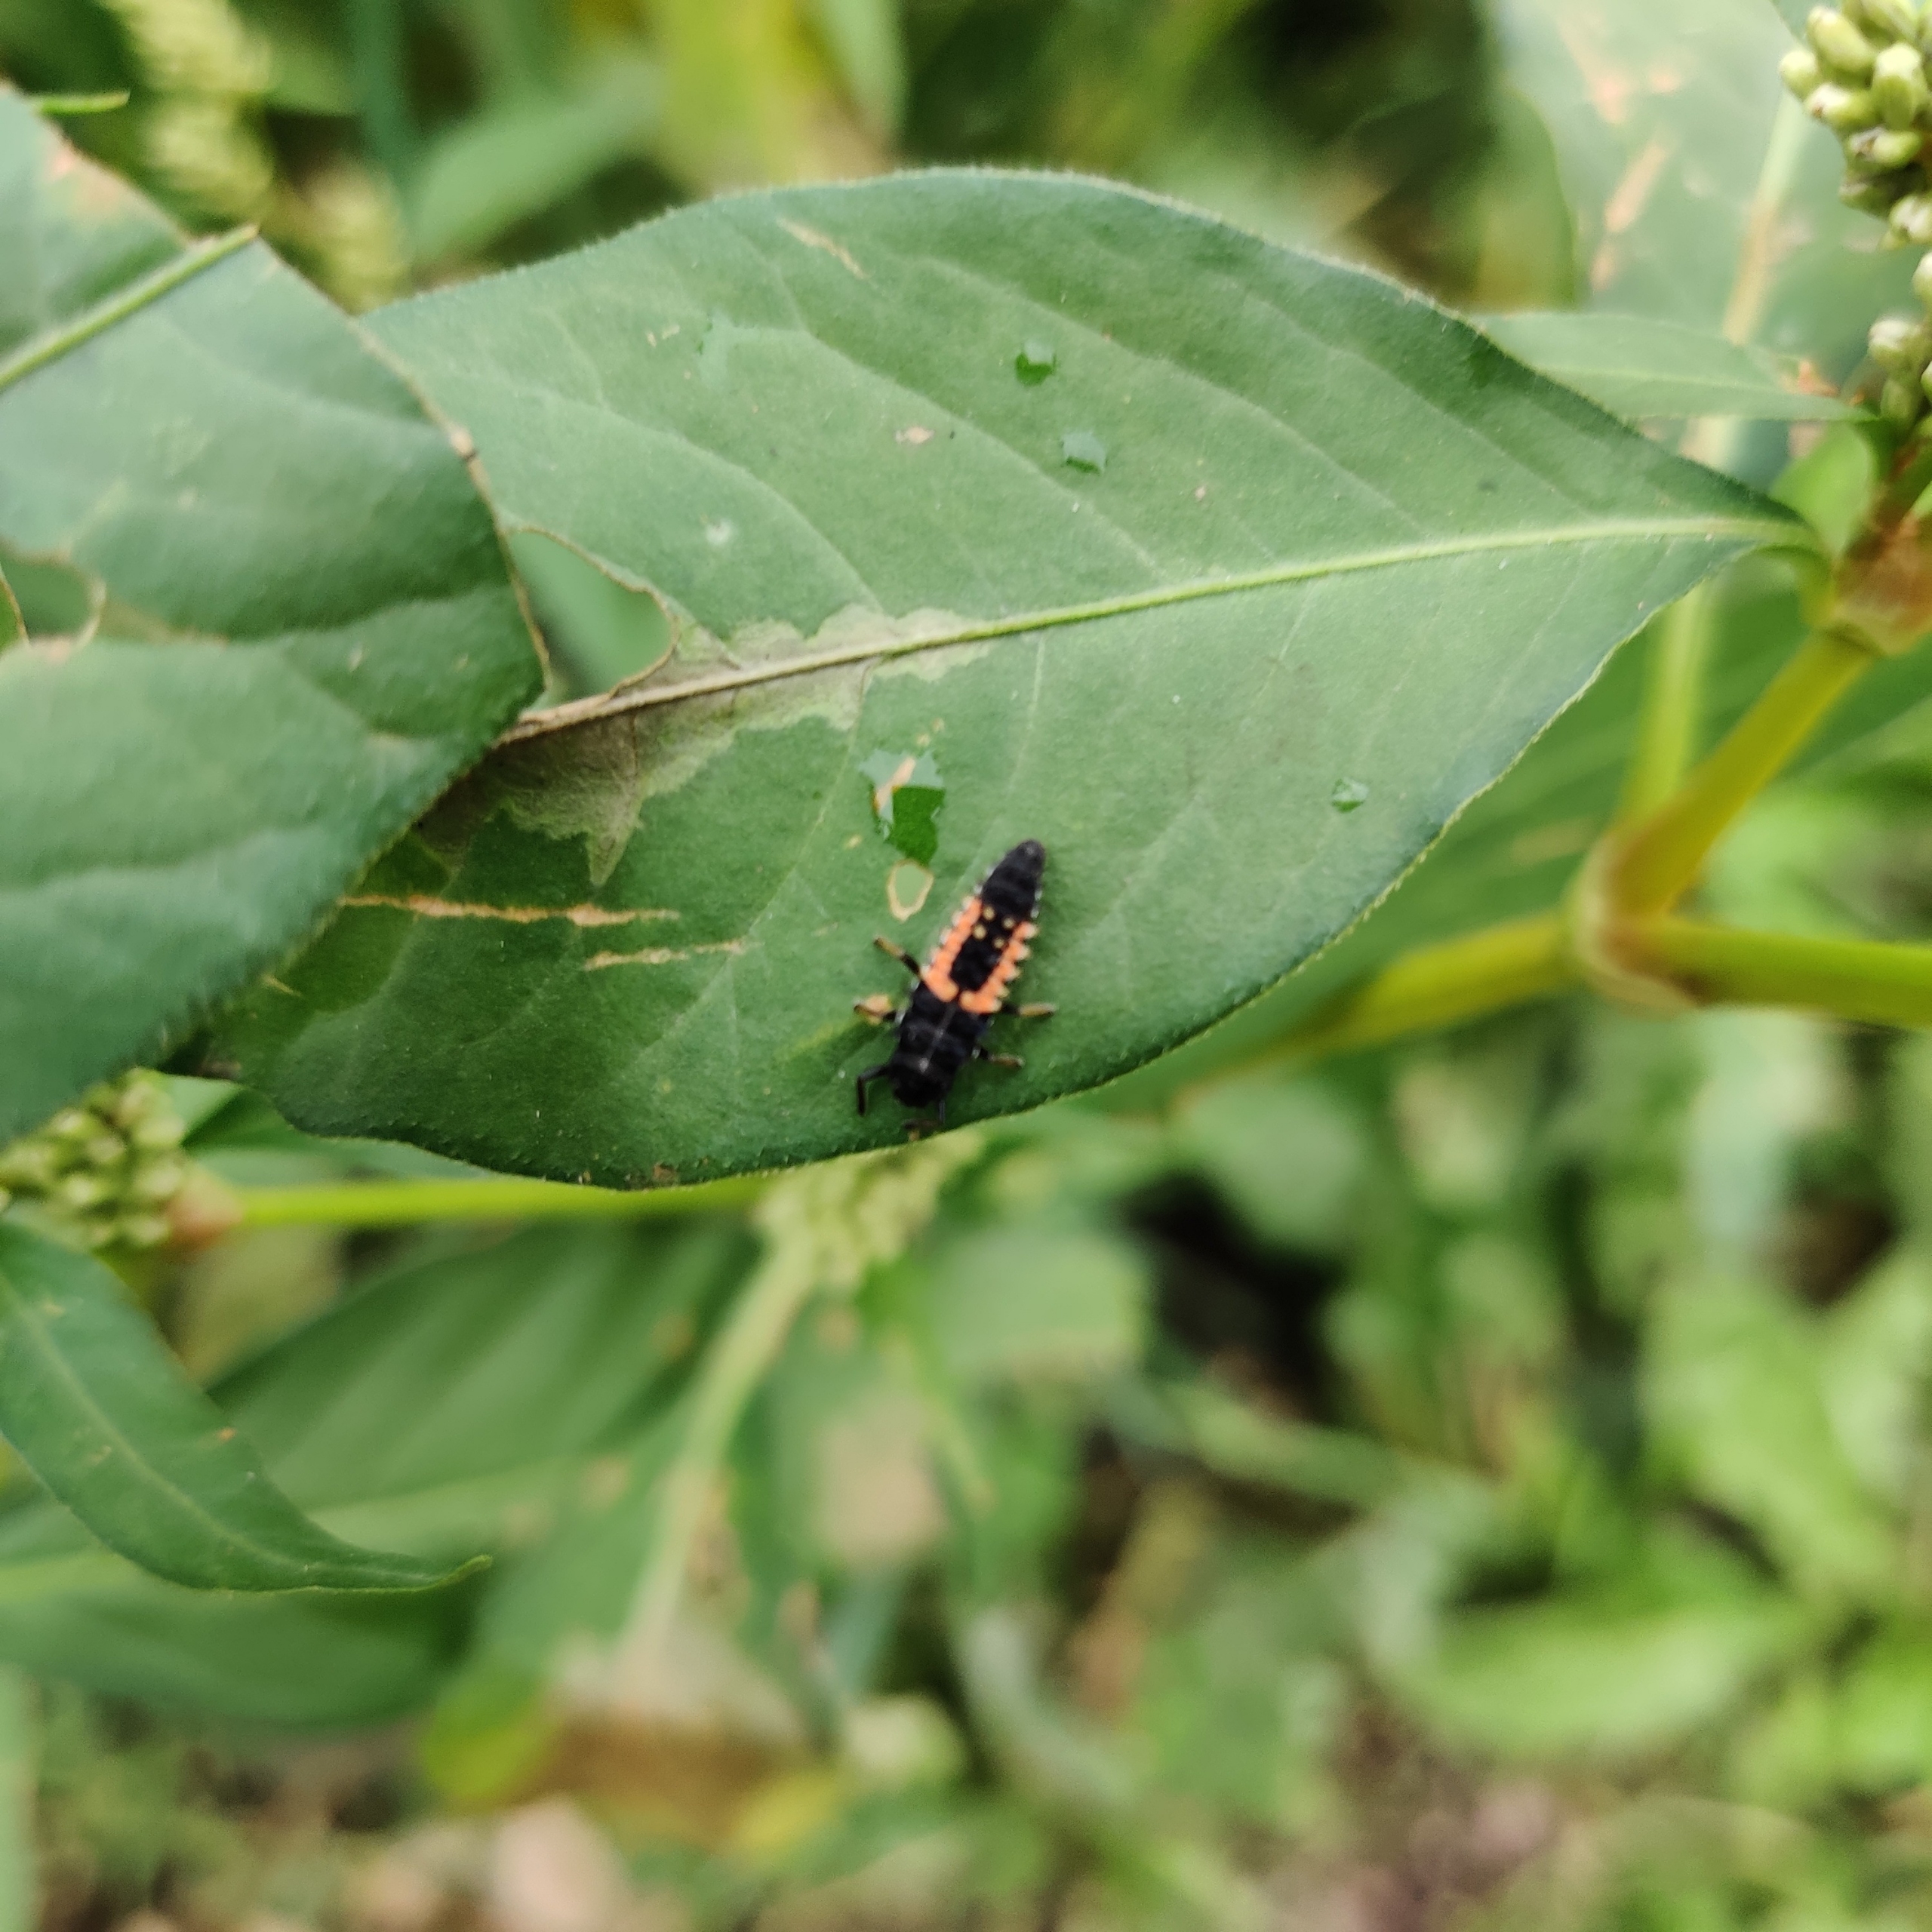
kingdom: Animalia
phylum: Arthropoda
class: Insecta
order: Coleoptera
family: Coccinellidae
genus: Harmonia
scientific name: Harmonia axyridis
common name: Harlekinmariehøne
